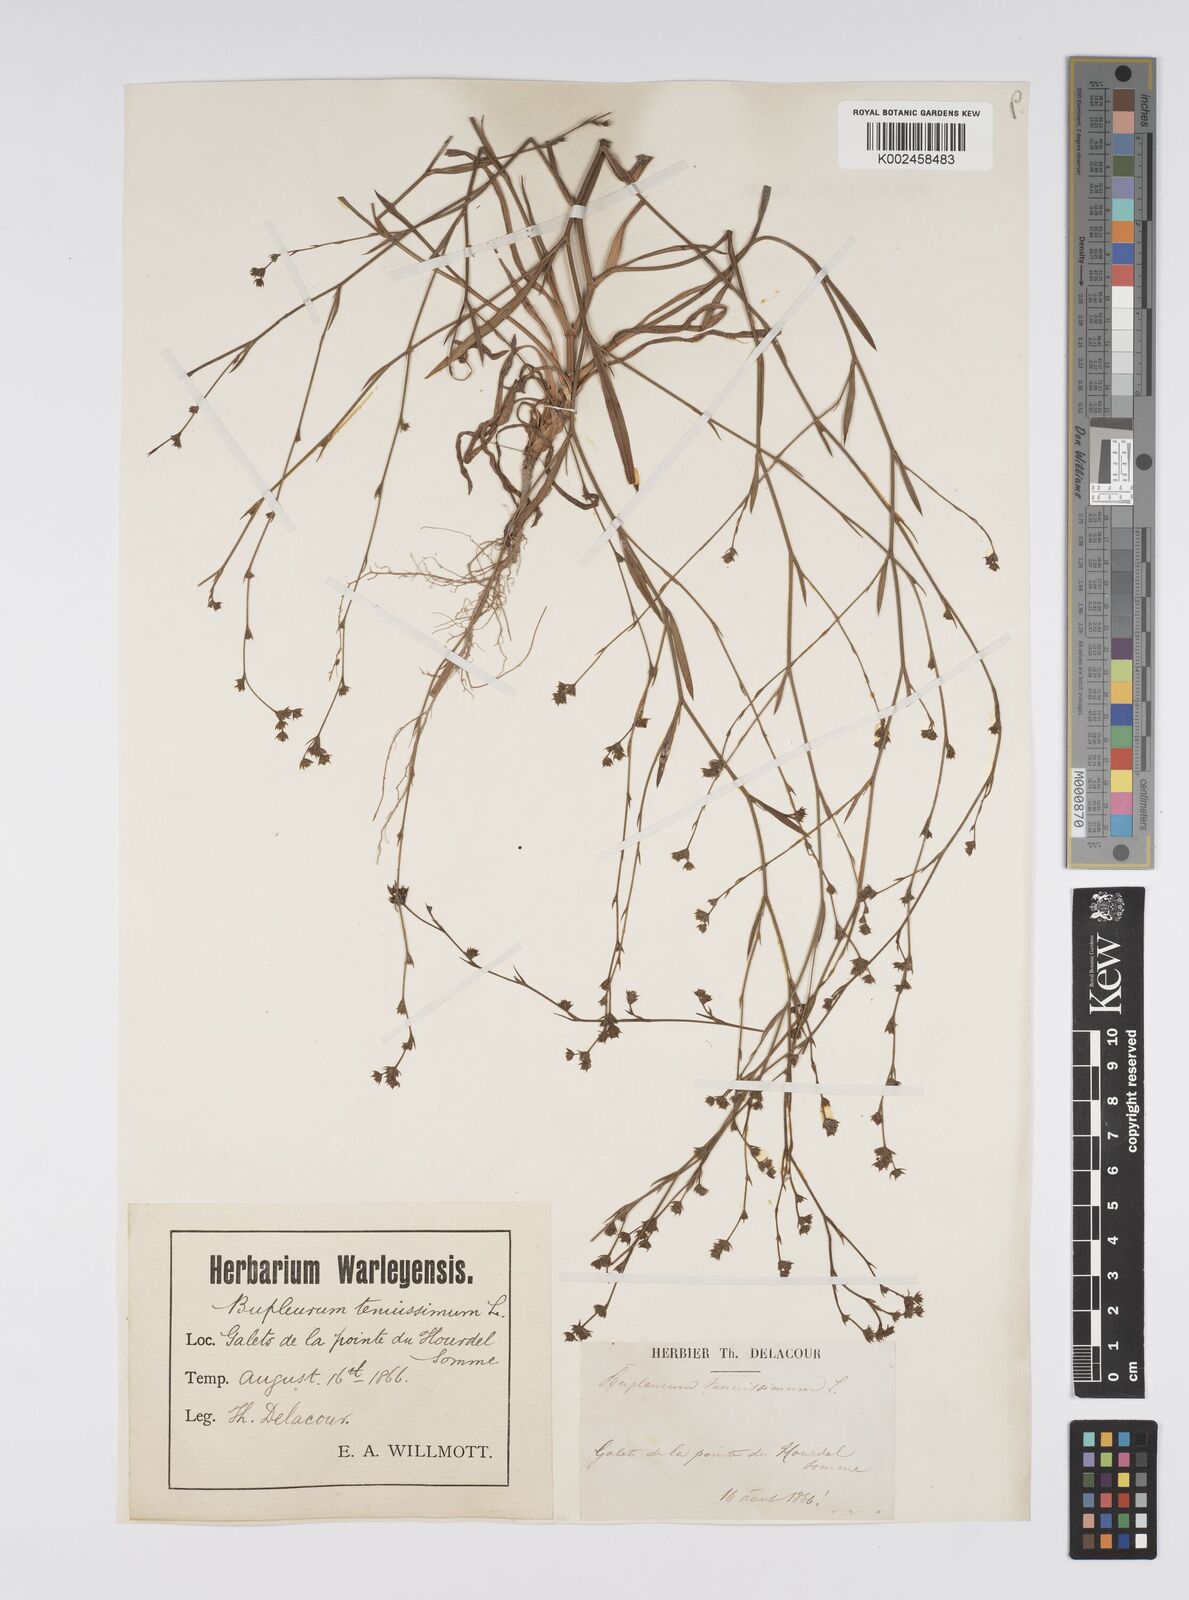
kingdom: Plantae
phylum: Tracheophyta
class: Magnoliopsida
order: Apiales
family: Apiaceae
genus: Bupleurum
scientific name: Bupleurum tenuissimum
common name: Slender hare's-ear
